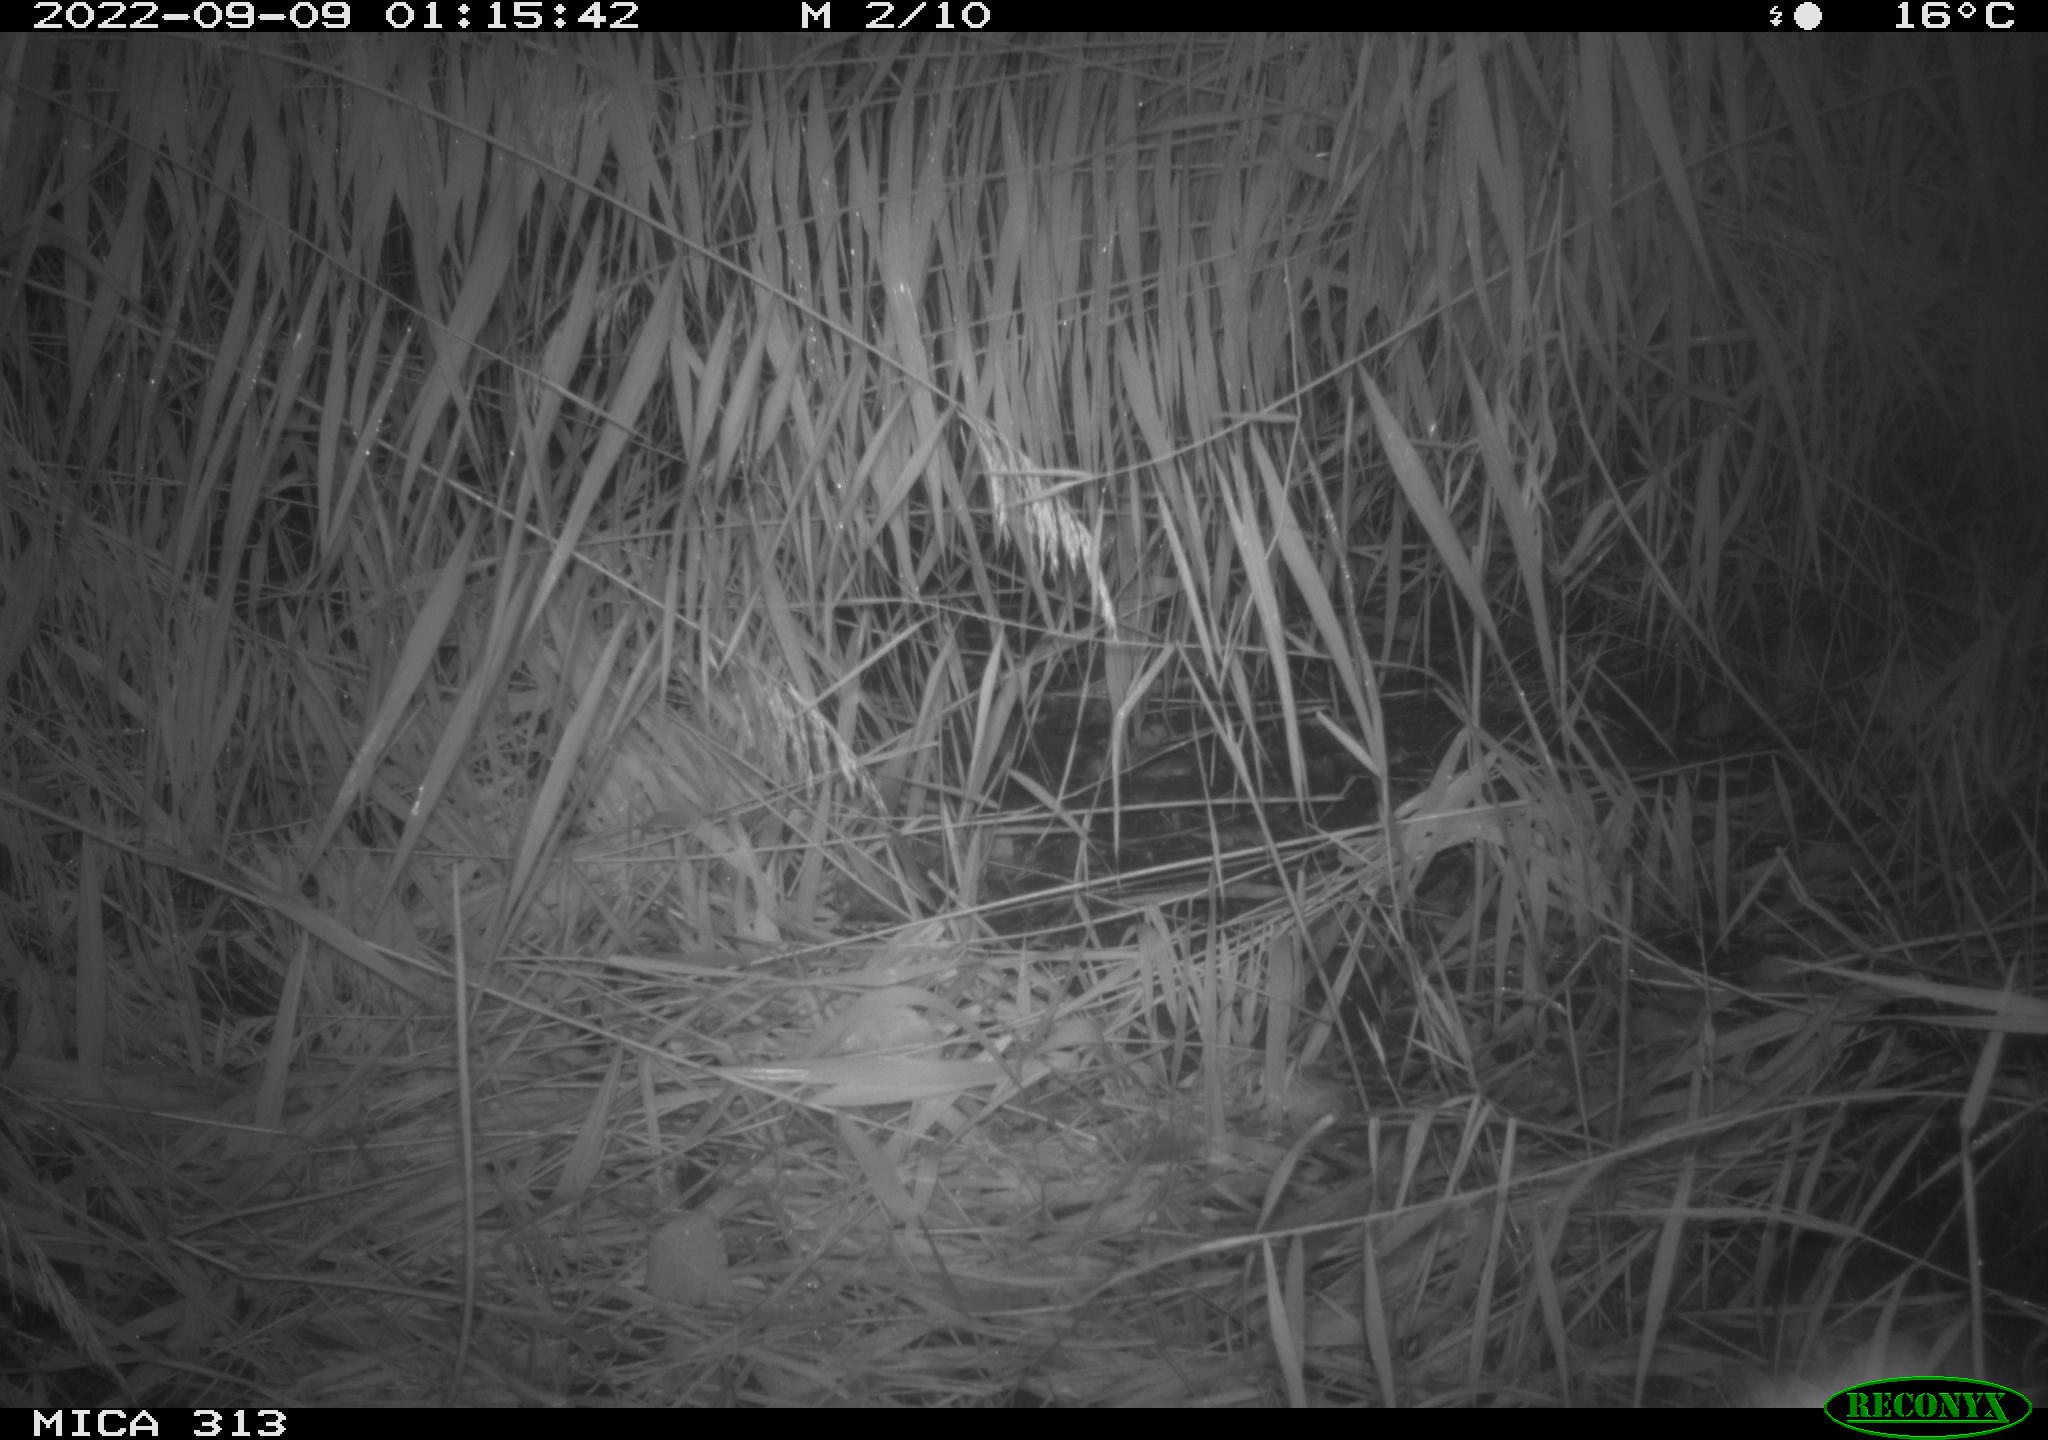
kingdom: Animalia
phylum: Chordata
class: Mammalia
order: Rodentia
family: Muridae
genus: Rattus
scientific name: Rattus norvegicus
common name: Brown rat
